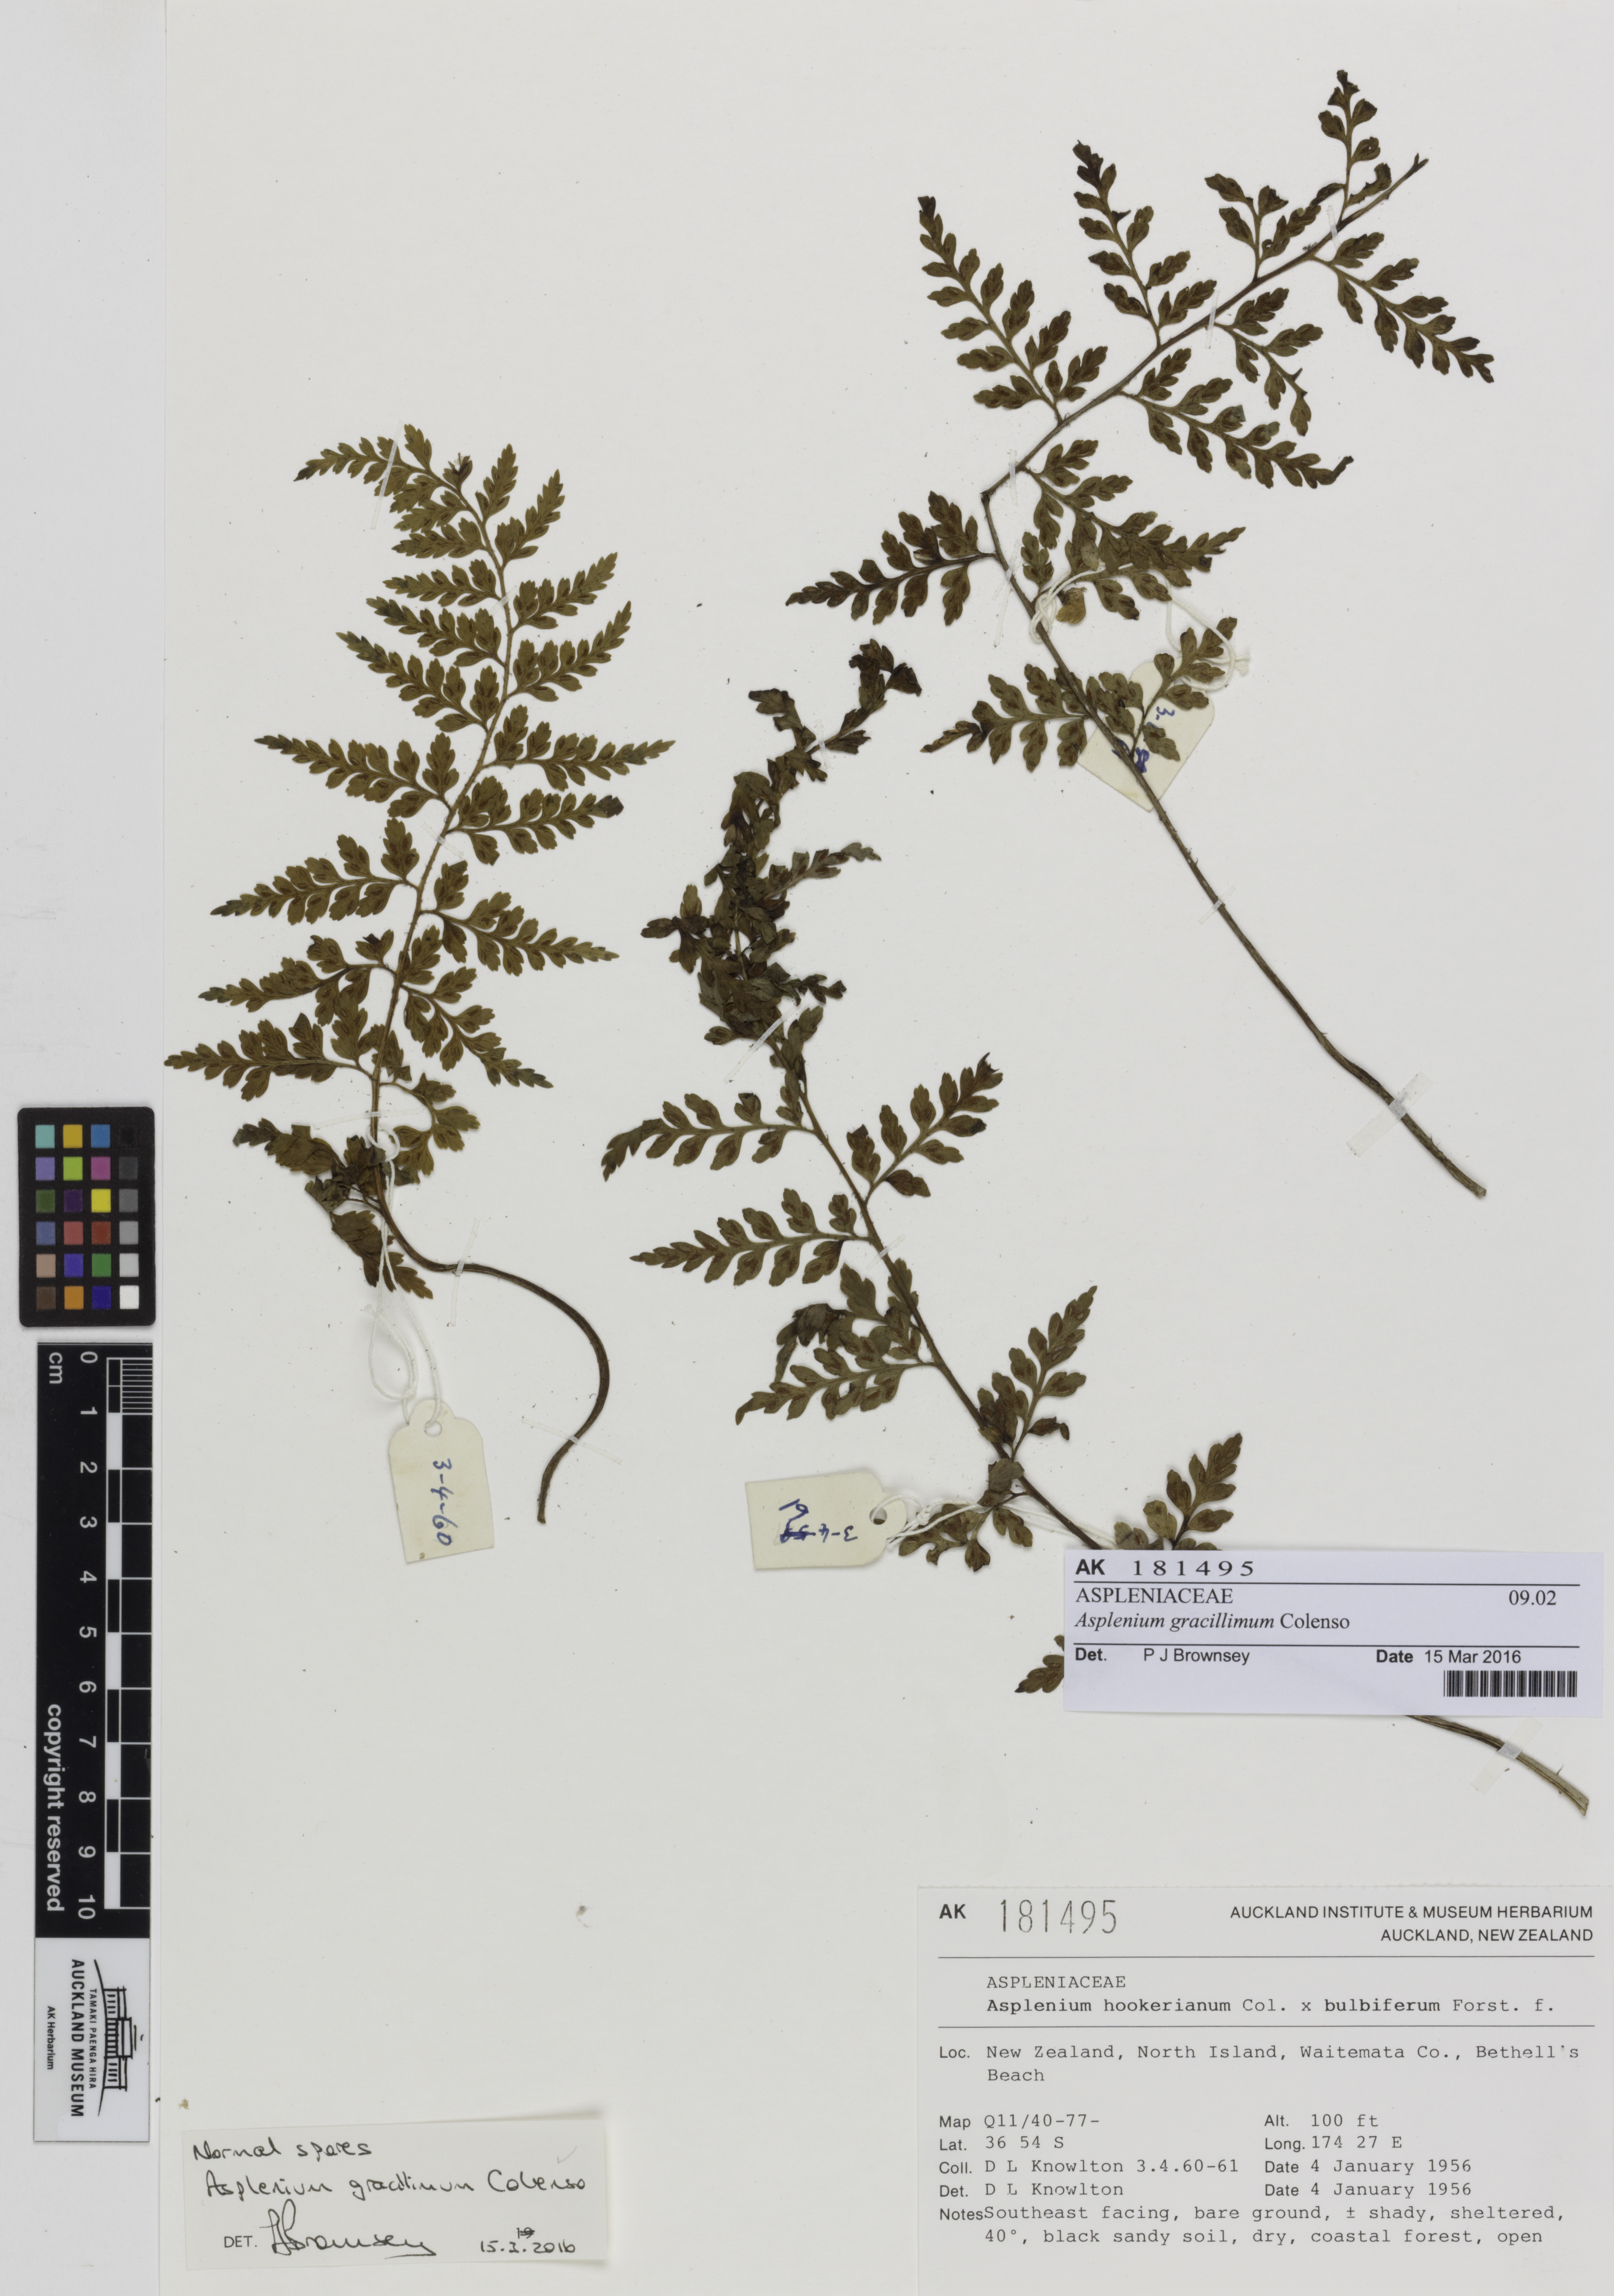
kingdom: Plantae
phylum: Tracheophyta
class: Polypodiopsida
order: Polypodiales
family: Aspleniaceae
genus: Asplenium
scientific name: Asplenium bulbiferum
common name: Mother fern
